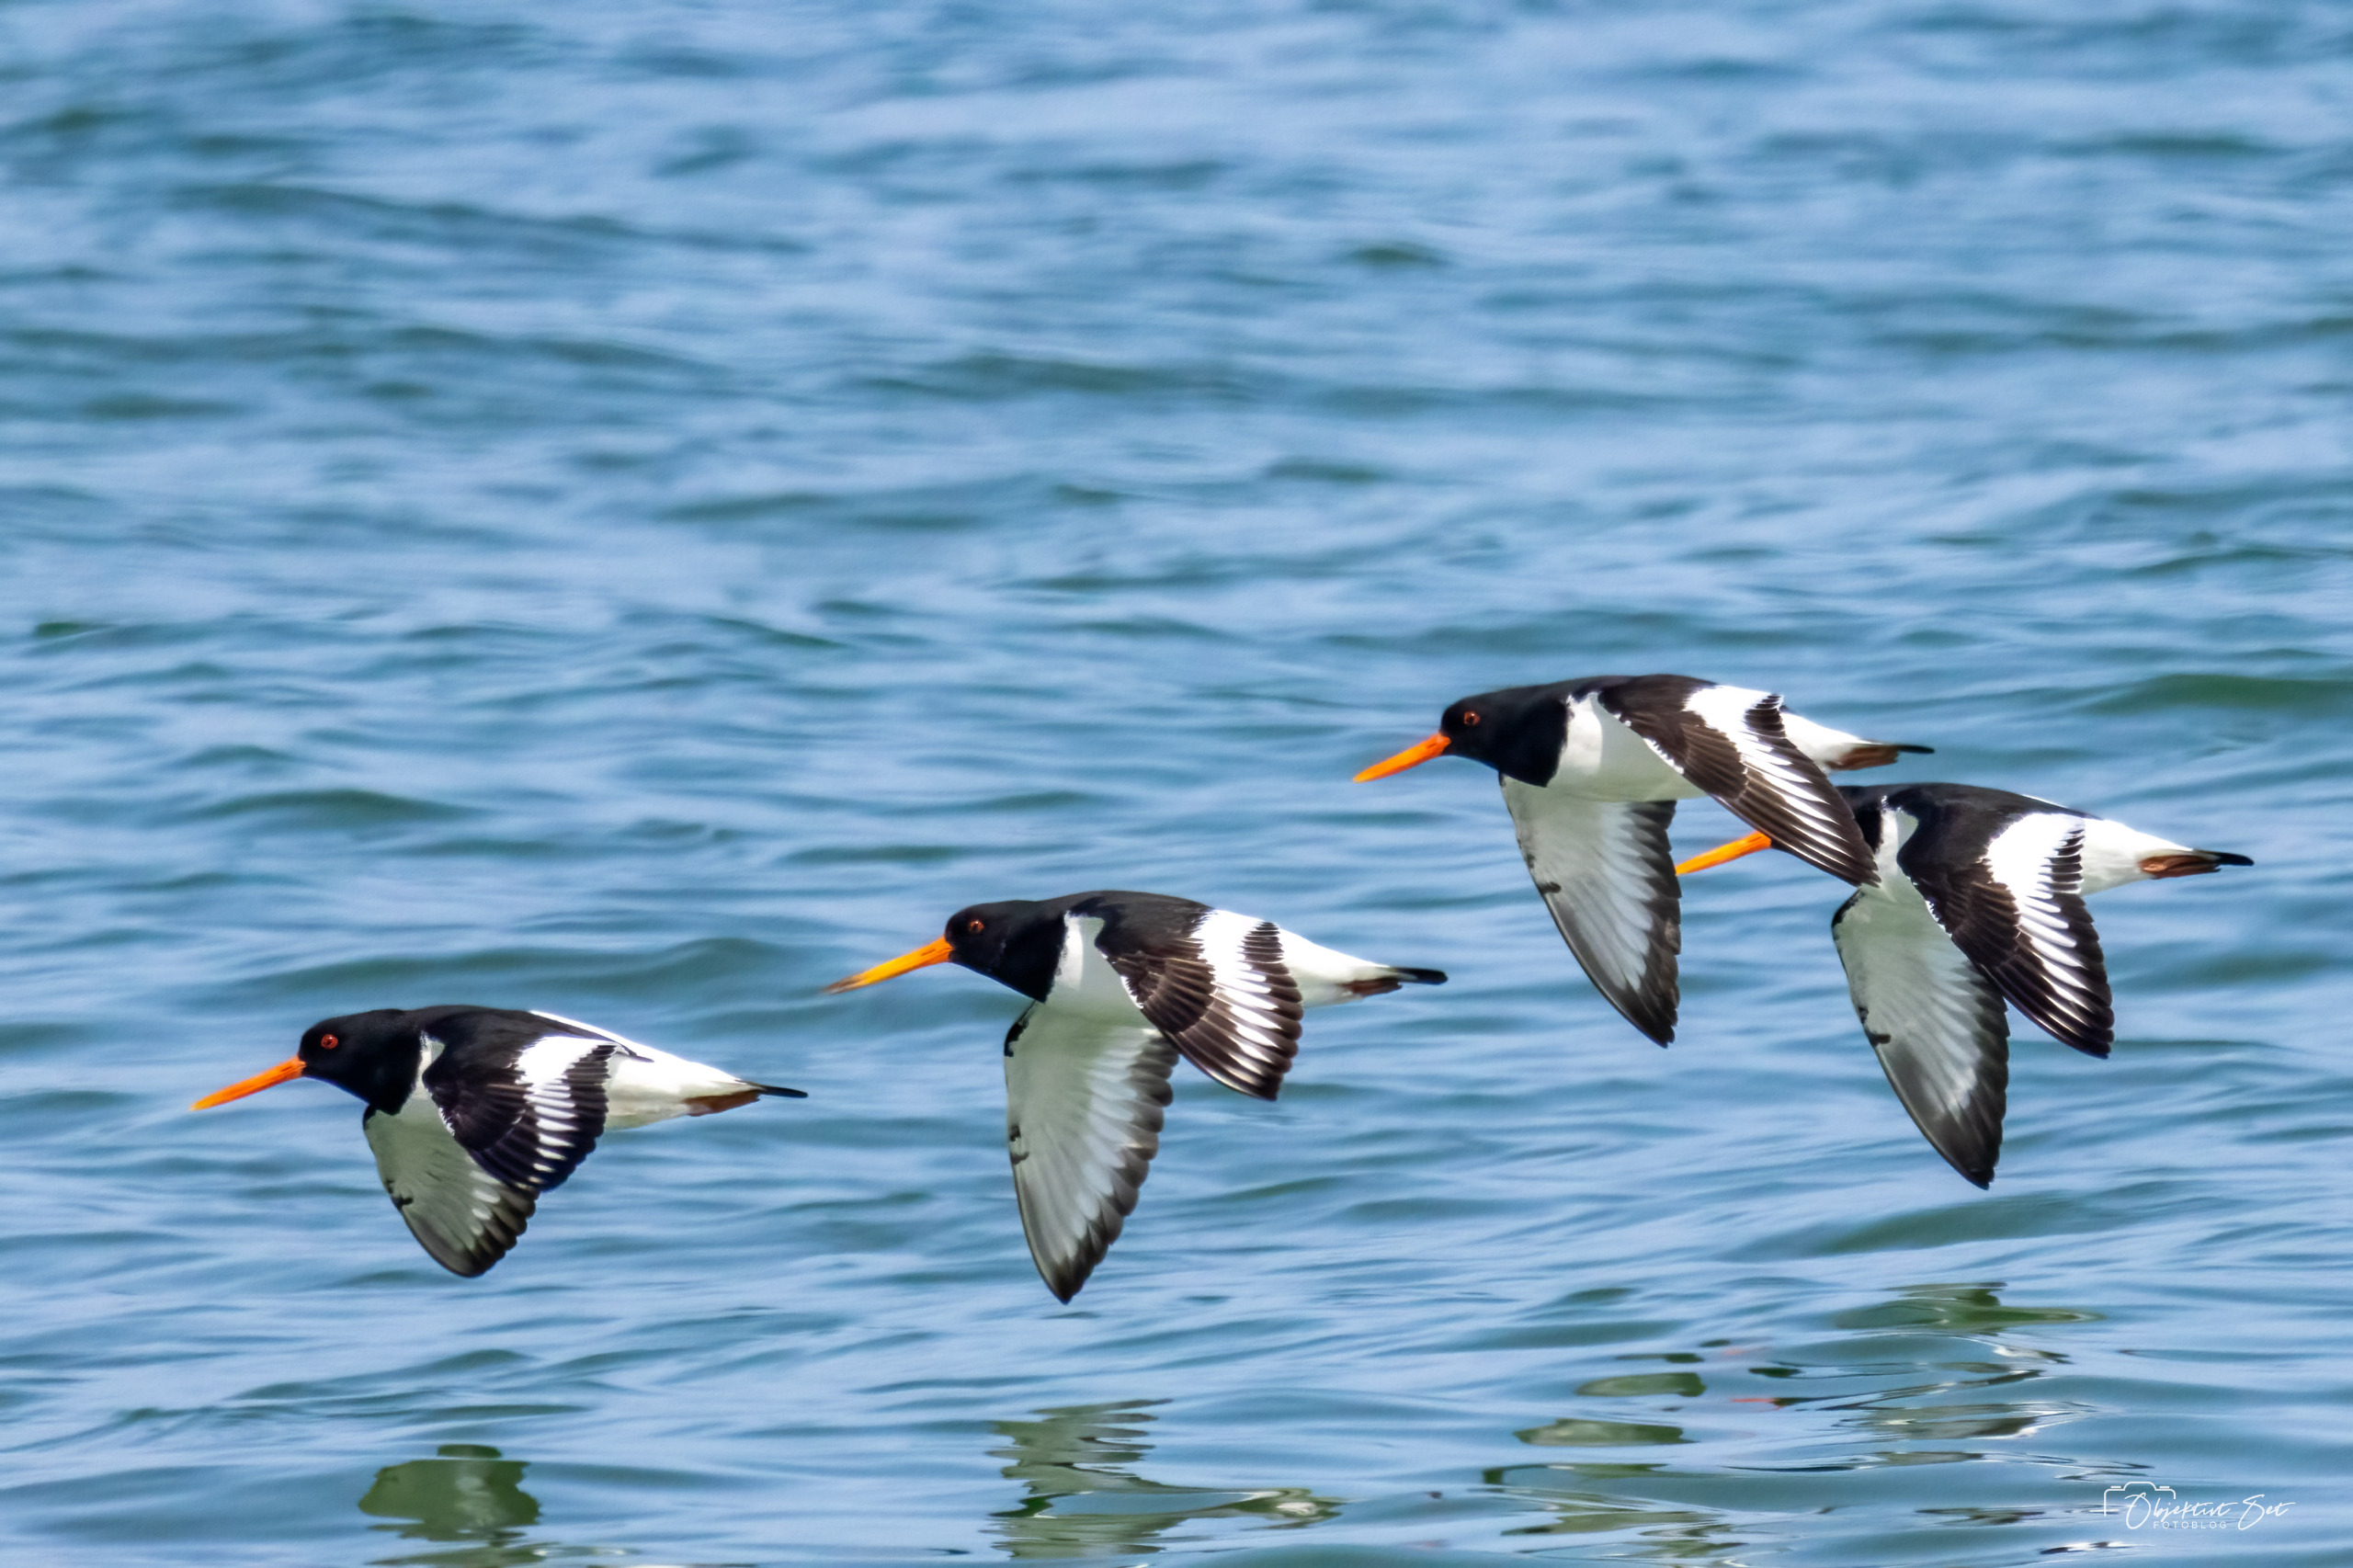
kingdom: Animalia
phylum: Chordata
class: Aves
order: Charadriiformes
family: Haematopodidae
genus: Haematopus
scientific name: Haematopus ostralegus
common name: Strandskade
